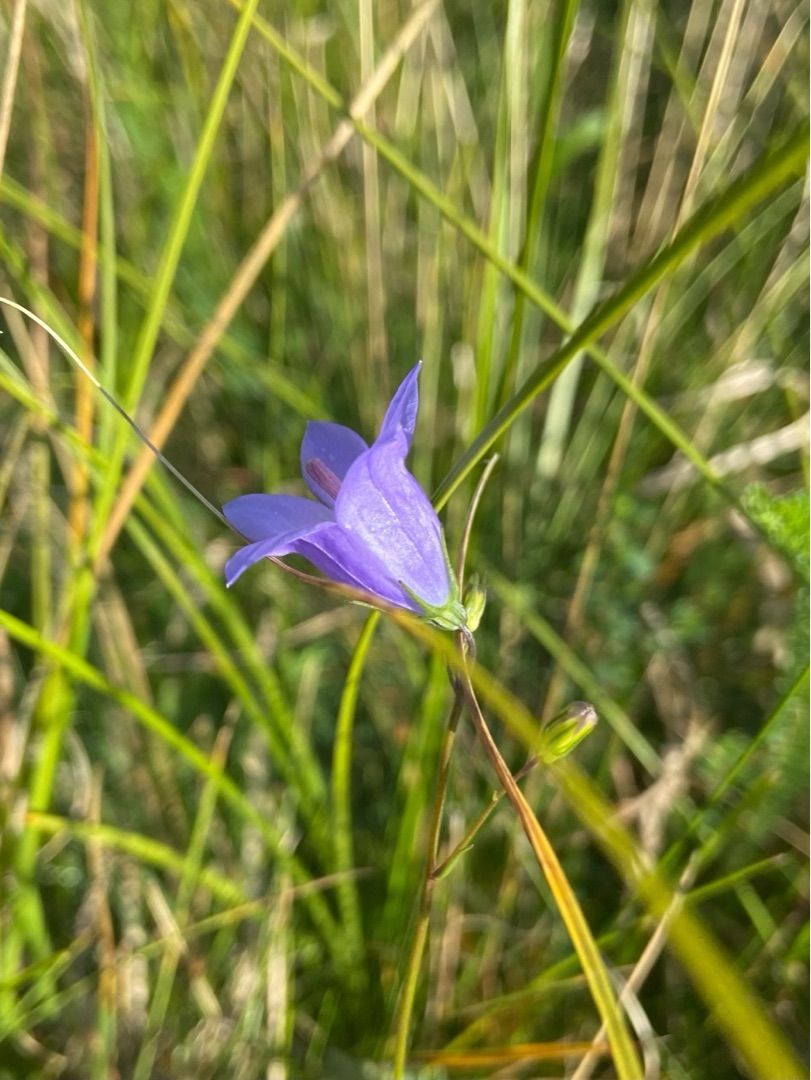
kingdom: Plantae
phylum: Tracheophyta
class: Magnoliopsida
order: Asterales
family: Campanulaceae
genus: Campanula
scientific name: Campanula rotundifolia
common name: Liden klokke
